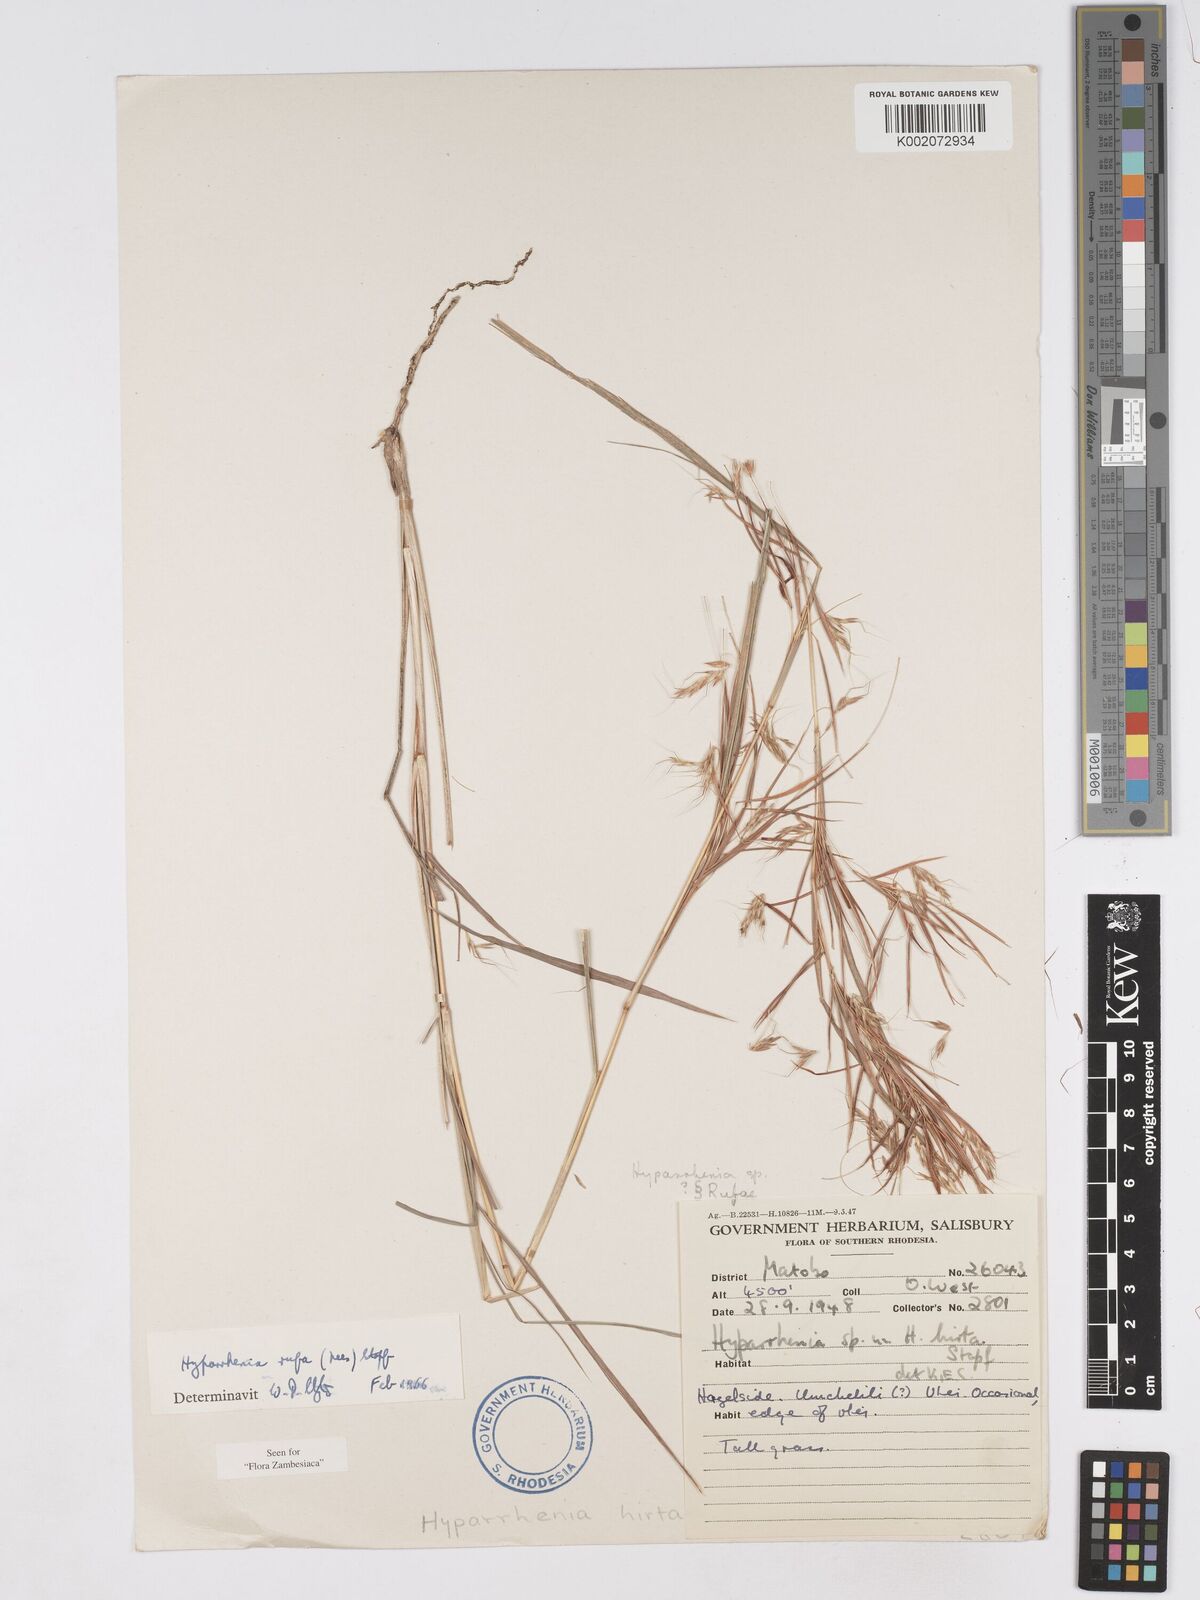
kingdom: Plantae
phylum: Tracheophyta
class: Liliopsida
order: Poales
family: Poaceae
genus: Hyparrhenia
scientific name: Hyparrhenia rufa
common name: Jaraguagrass
